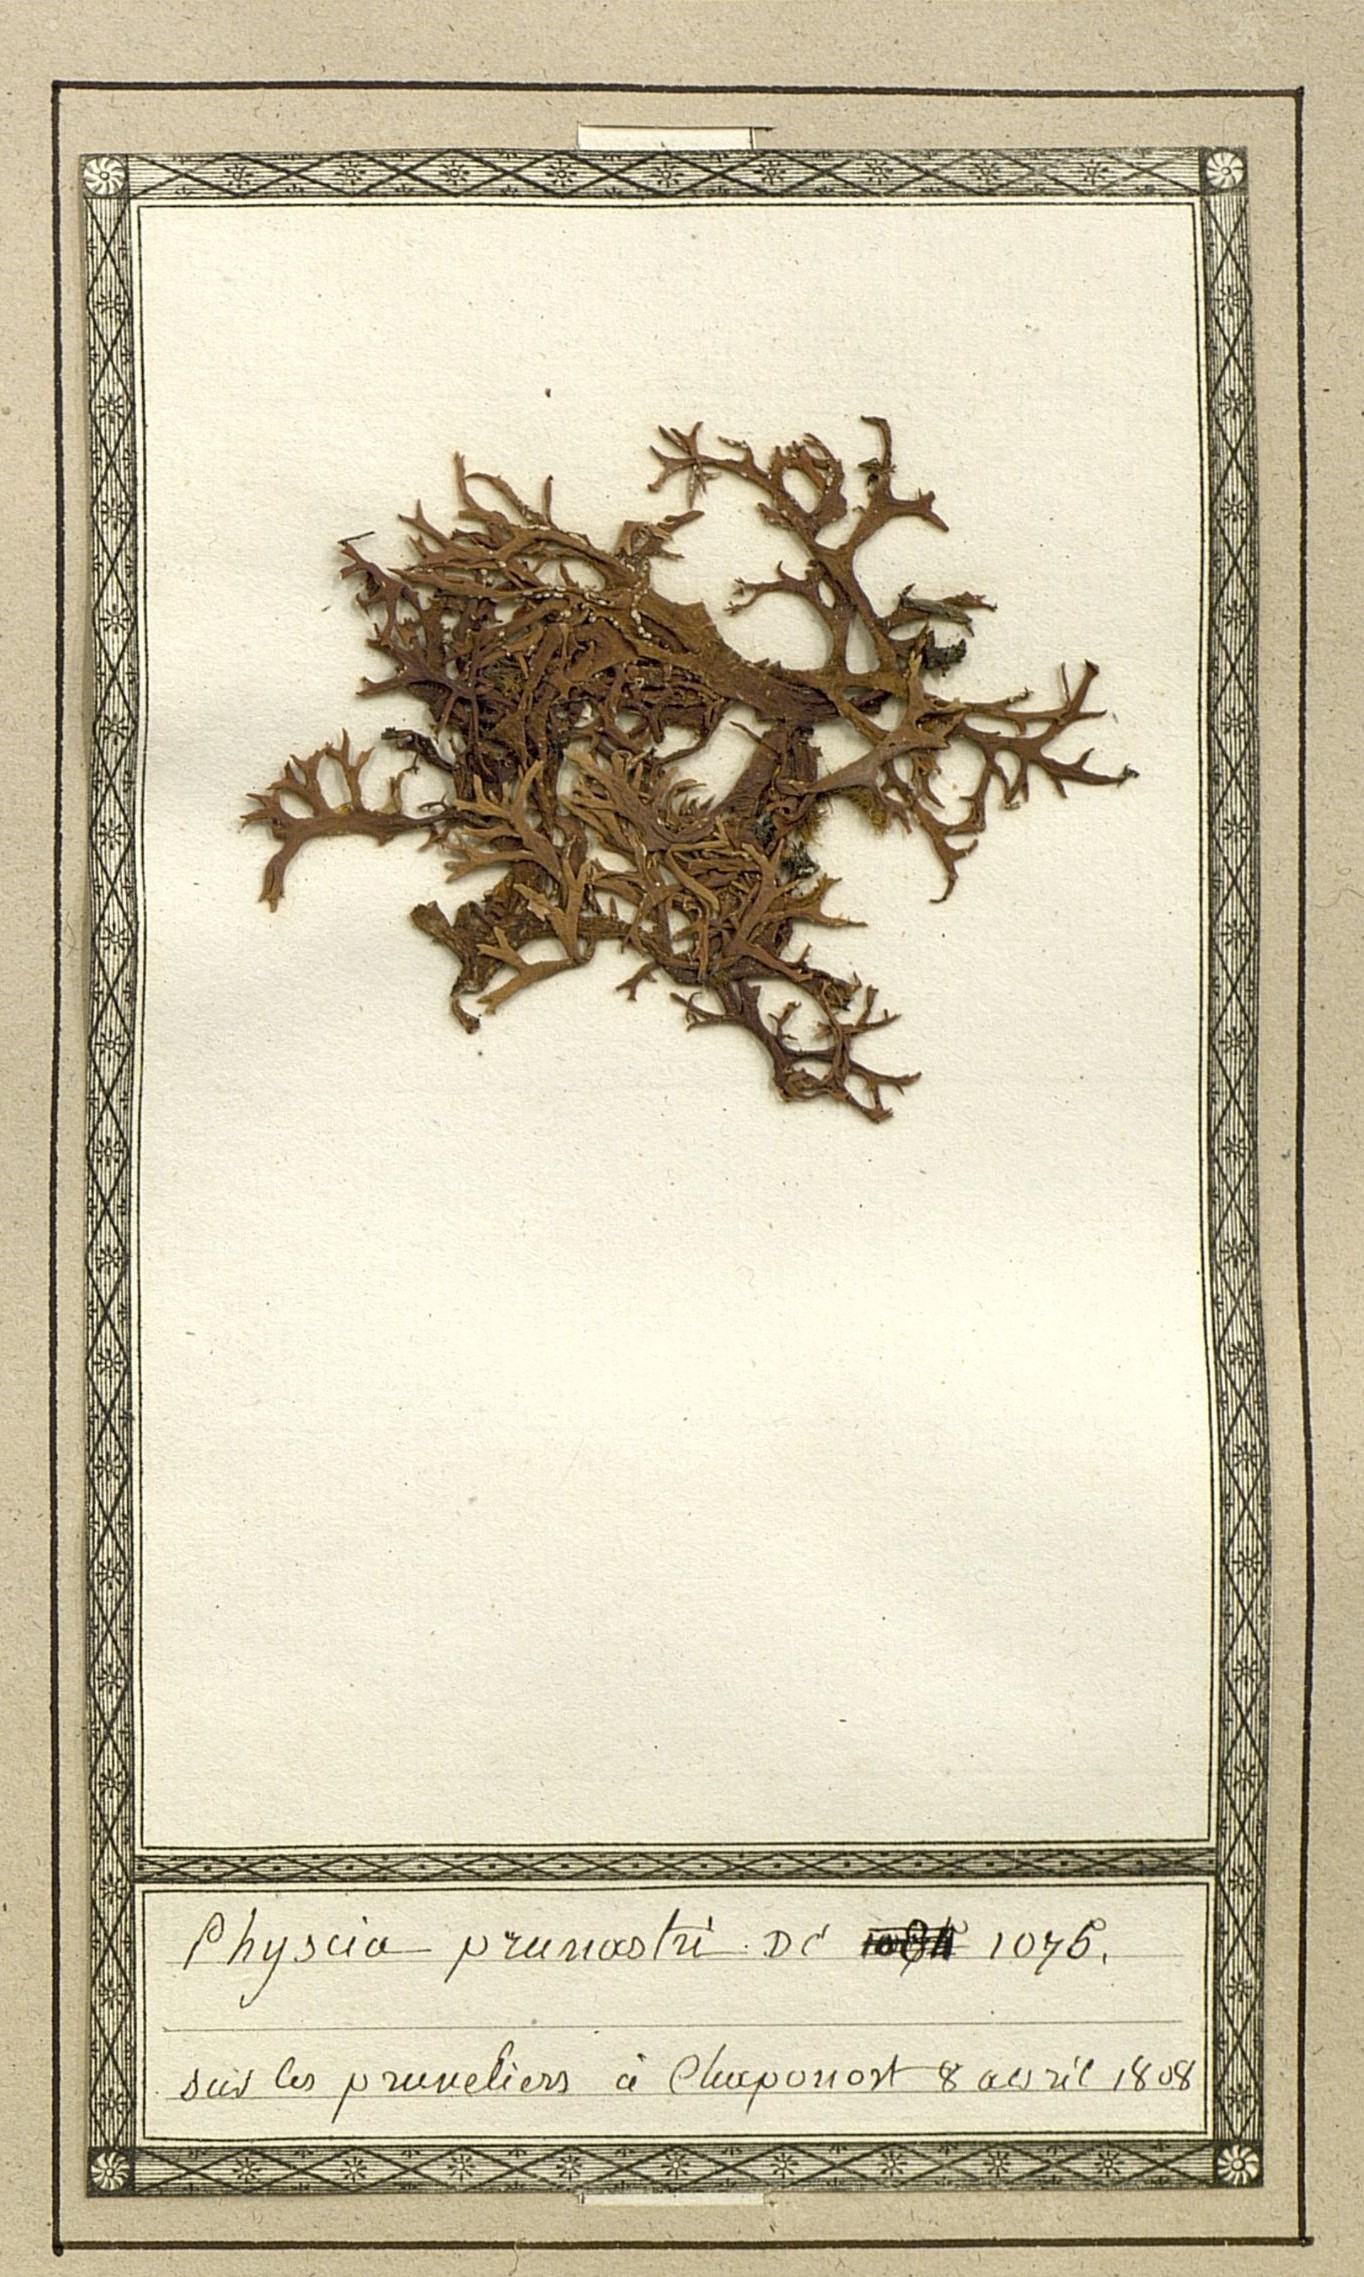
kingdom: Fungi
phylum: Ascomycota
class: Lecanoromycetes
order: Lecanorales
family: Parmeliaceae
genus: Evernia
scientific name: Evernia prunastri
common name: Oak moss
